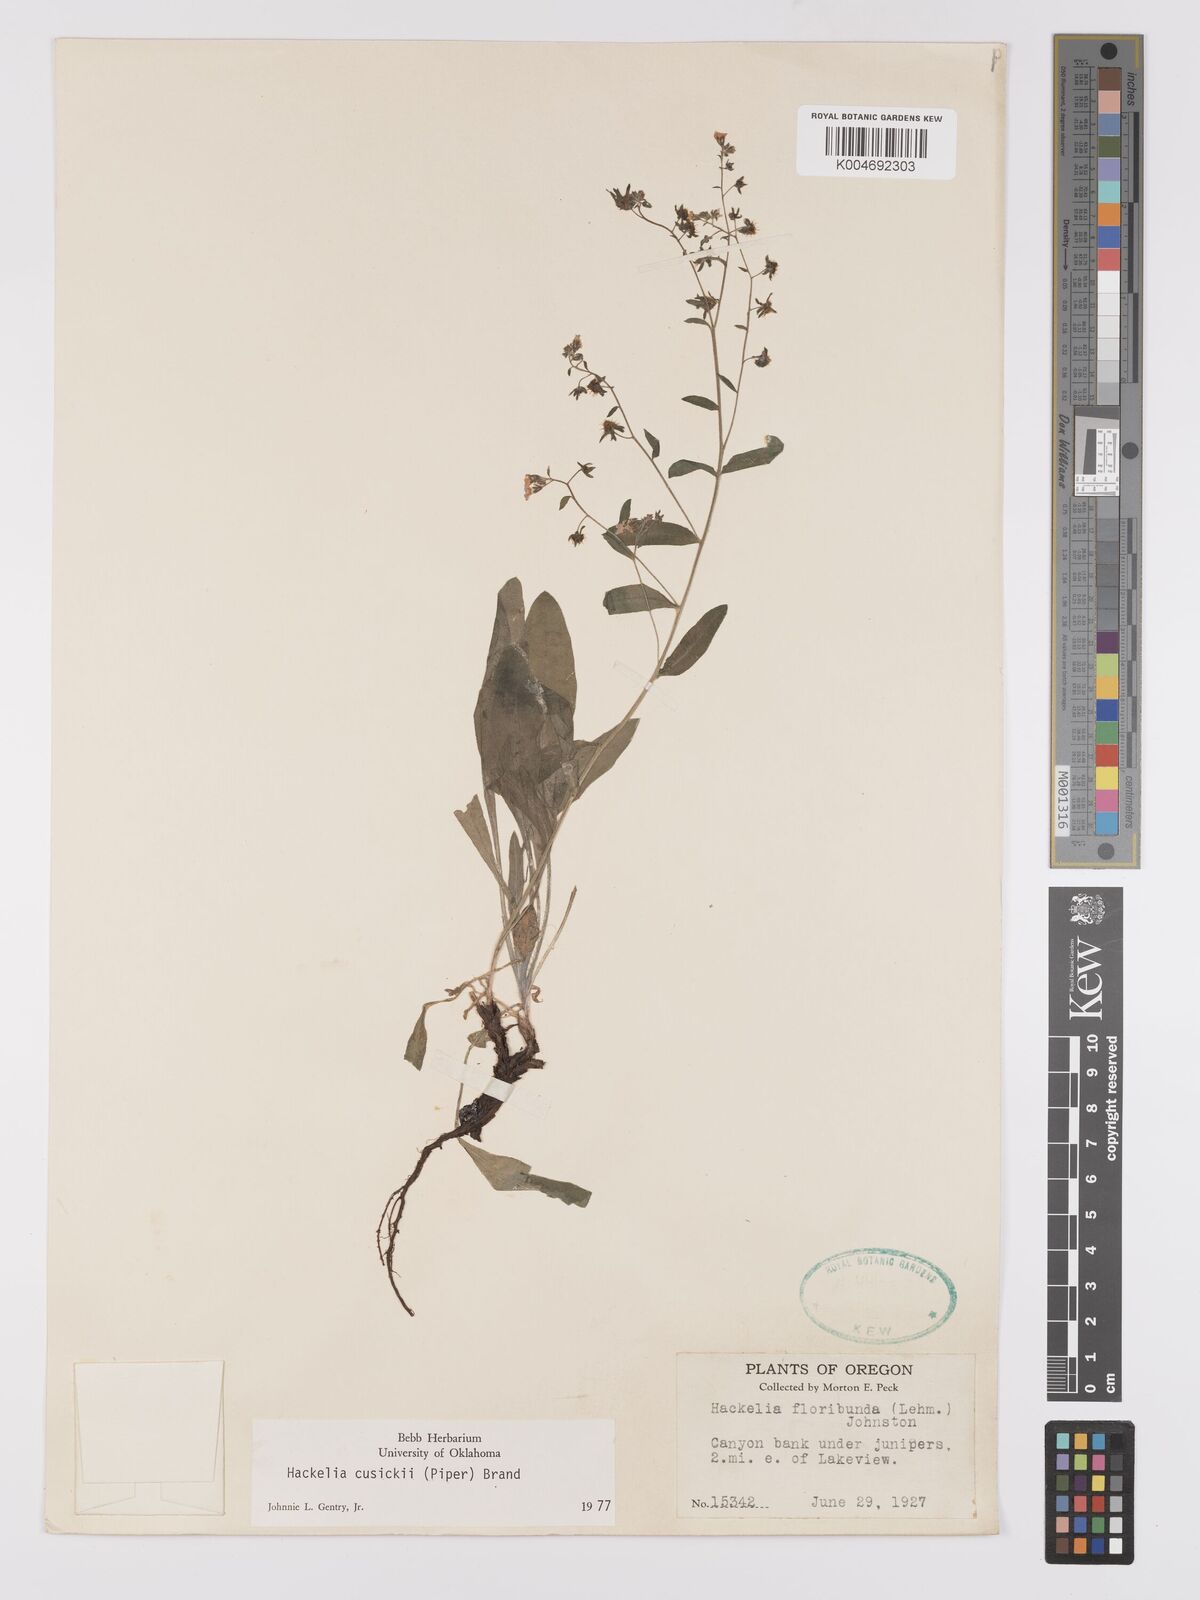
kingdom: Plantae
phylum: Tracheophyta
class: Magnoliopsida
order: Boraginales
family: Boraginaceae
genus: Hackelia
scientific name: Hackelia cusickii
